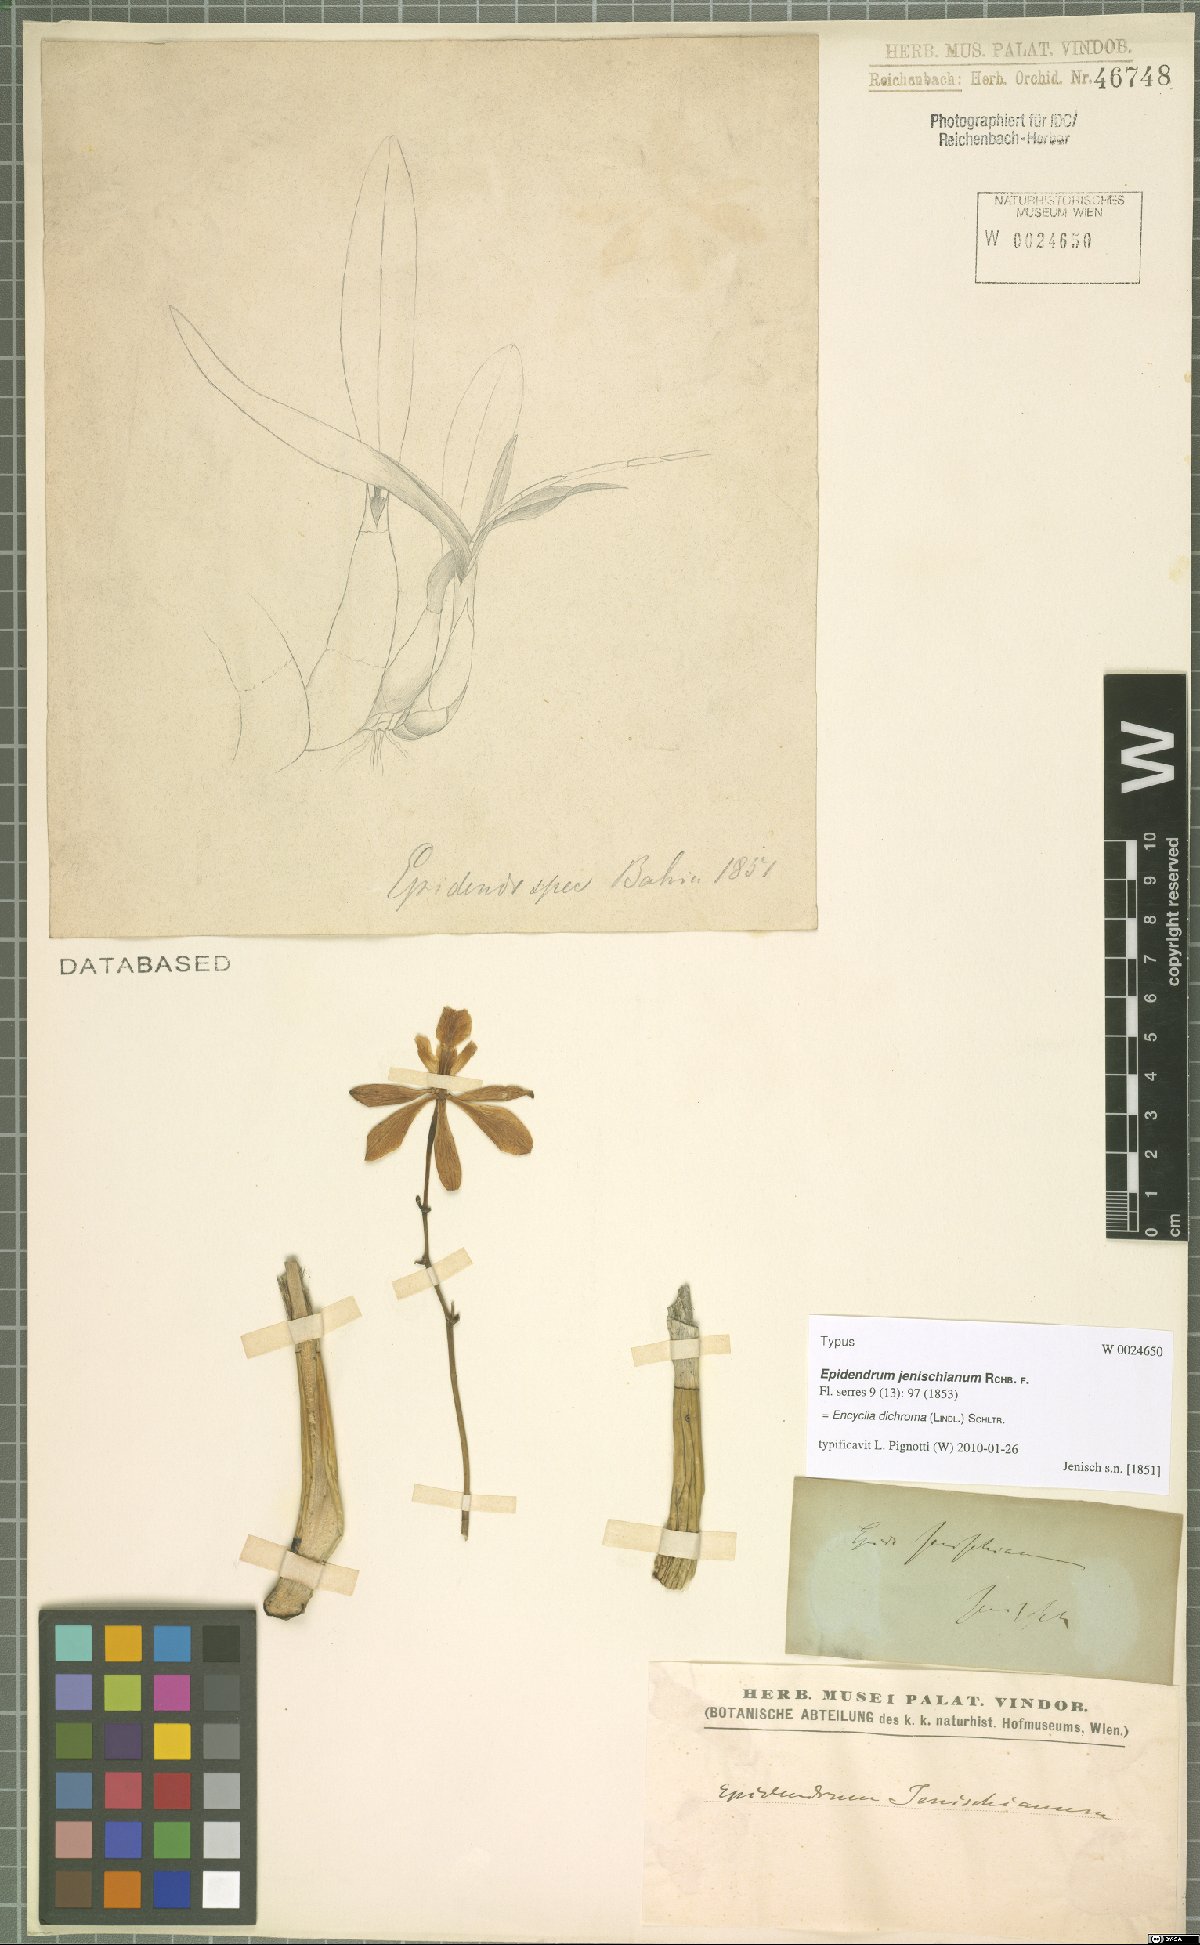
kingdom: Plantae
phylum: Tracheophyta
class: Liliopsida
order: Asparagales
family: Orchidaceae
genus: Encyclia
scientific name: Encyclia dichroma
